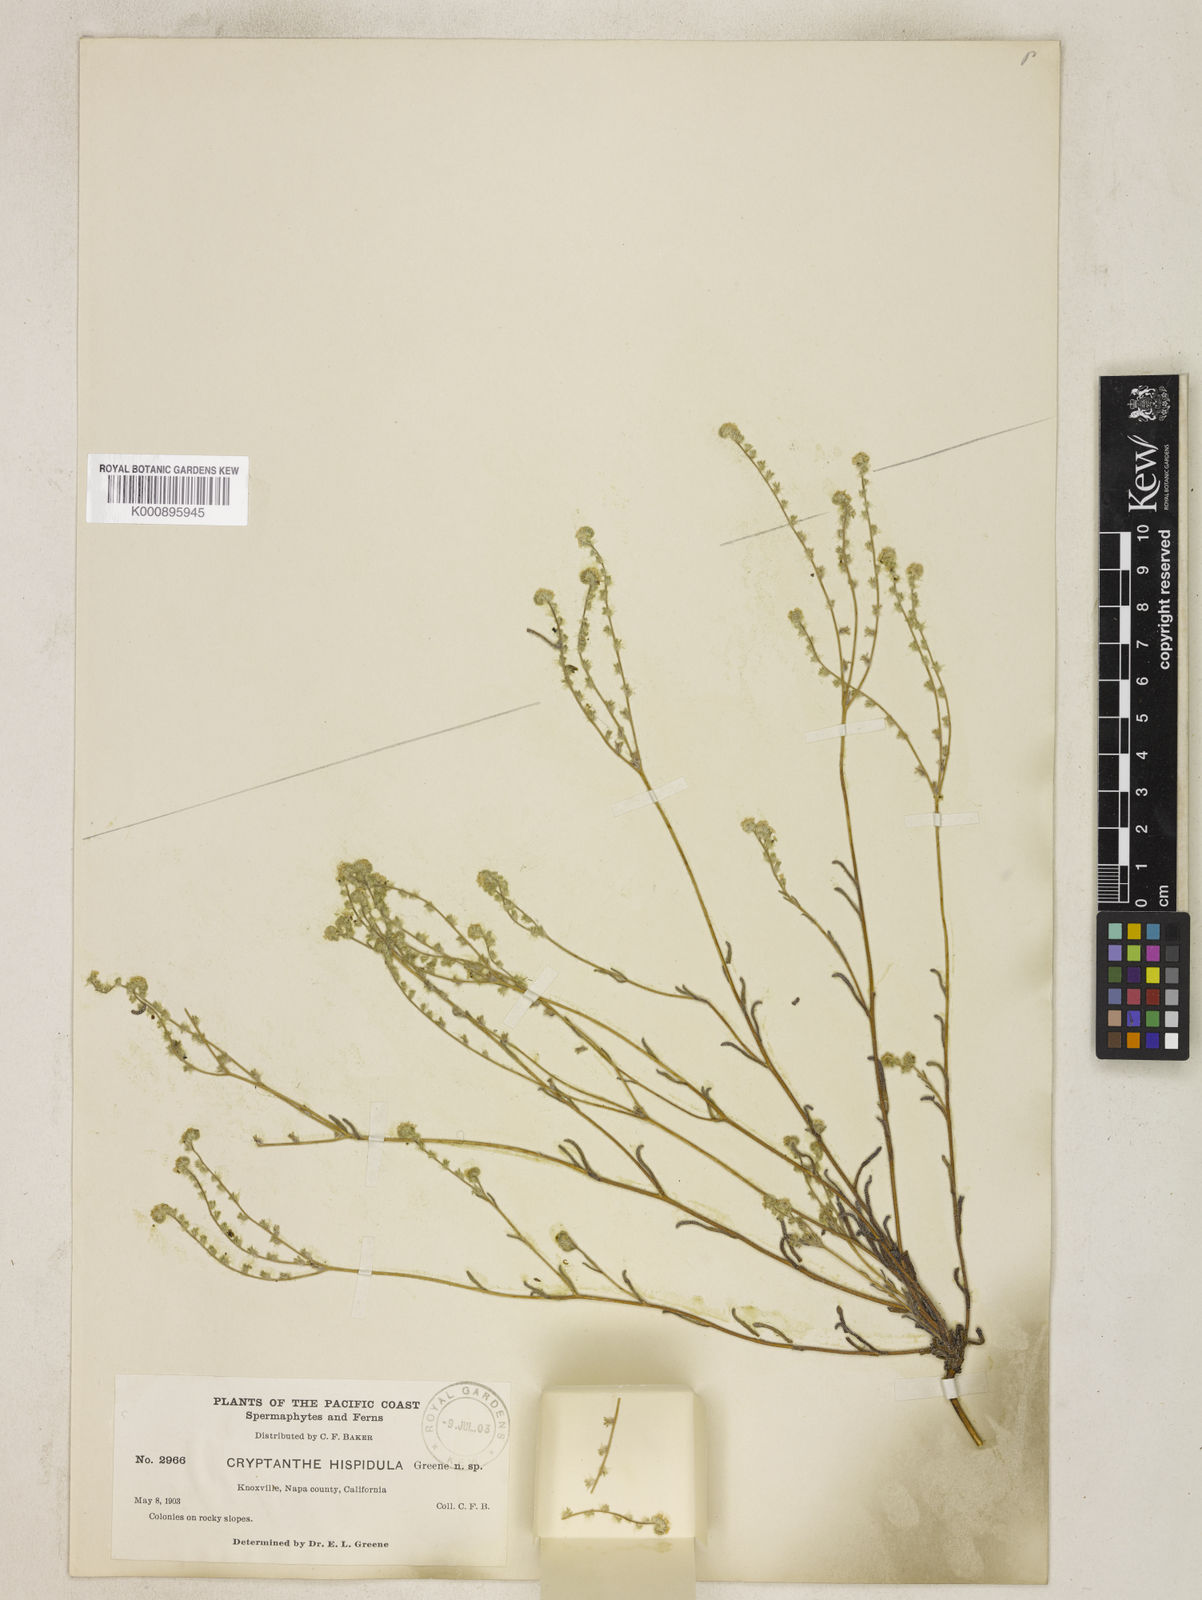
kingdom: Plantae
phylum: Tracheophyta
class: Magnoliopsida
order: Boraginales
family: Boraginaceae
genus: Plagiobothrys
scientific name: Plagiobothrys scouleri
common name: White forget-me-not
